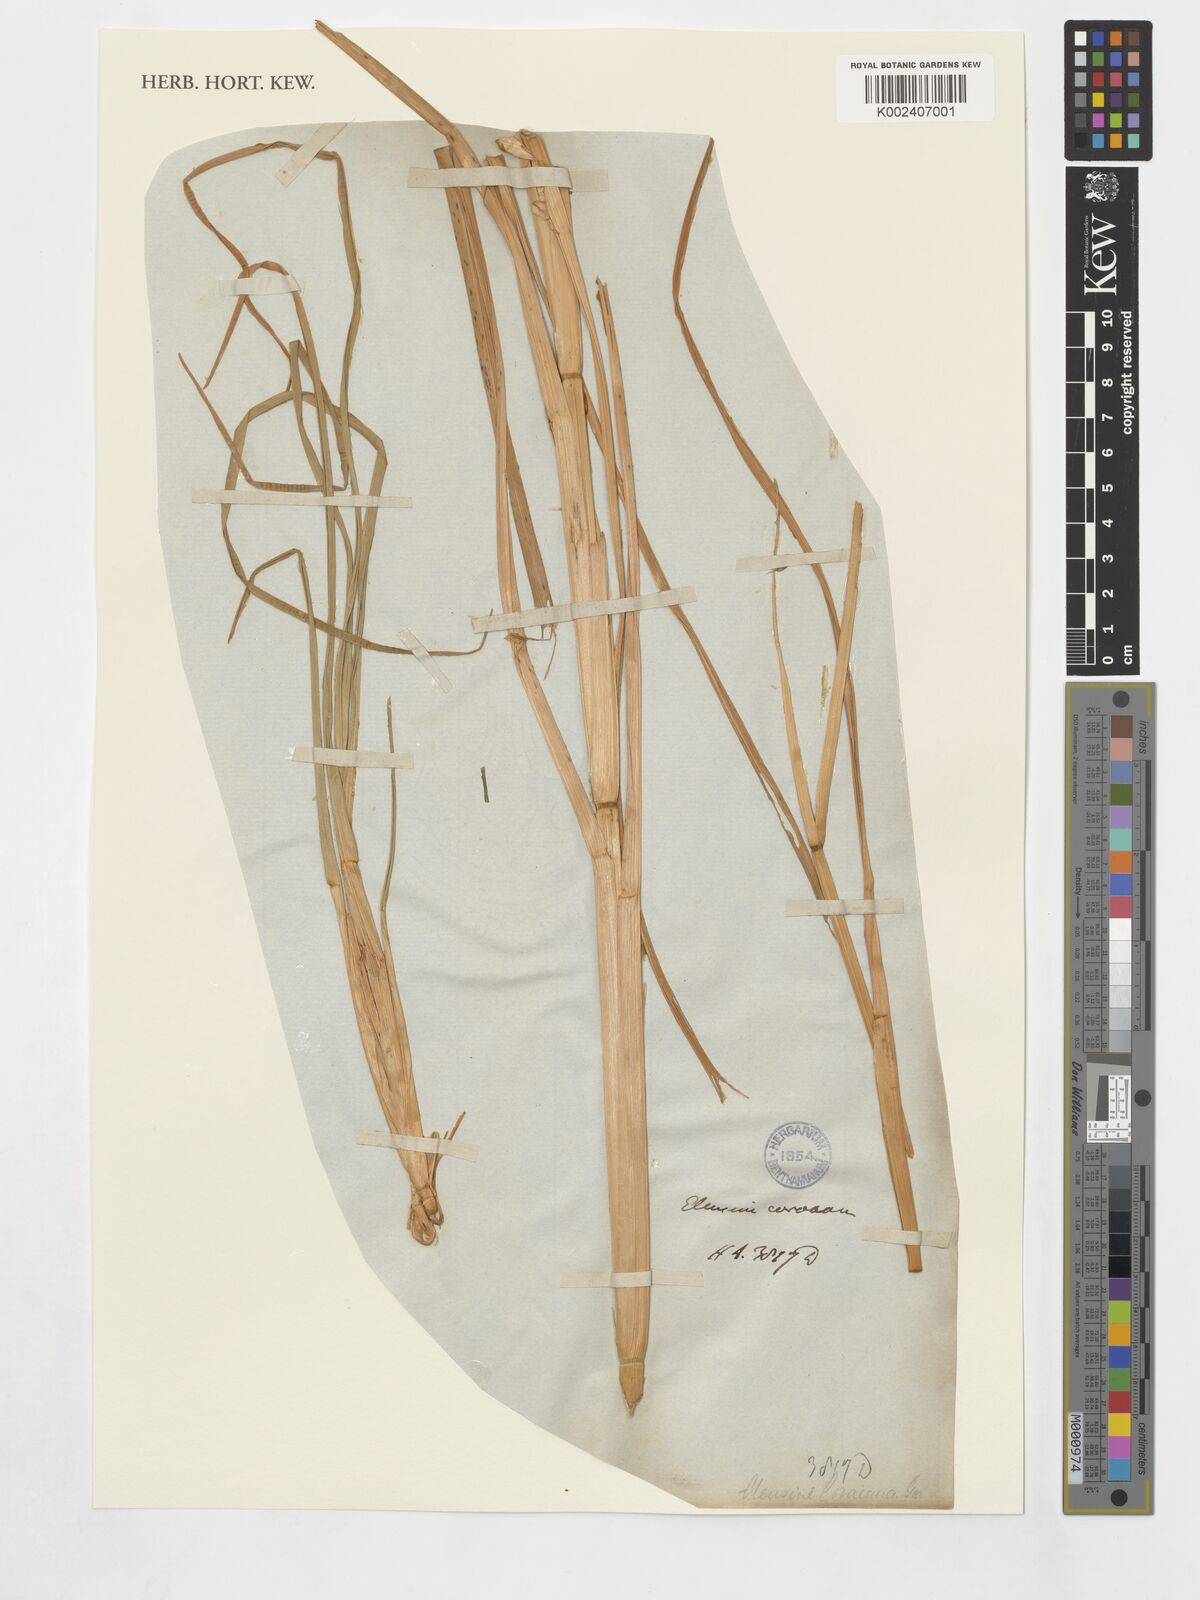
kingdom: Plantae
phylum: Tracheophyta
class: Liliopsida
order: Poales
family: Poaceae
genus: Eleusine
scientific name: Eleusine coracana
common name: Finger millet
